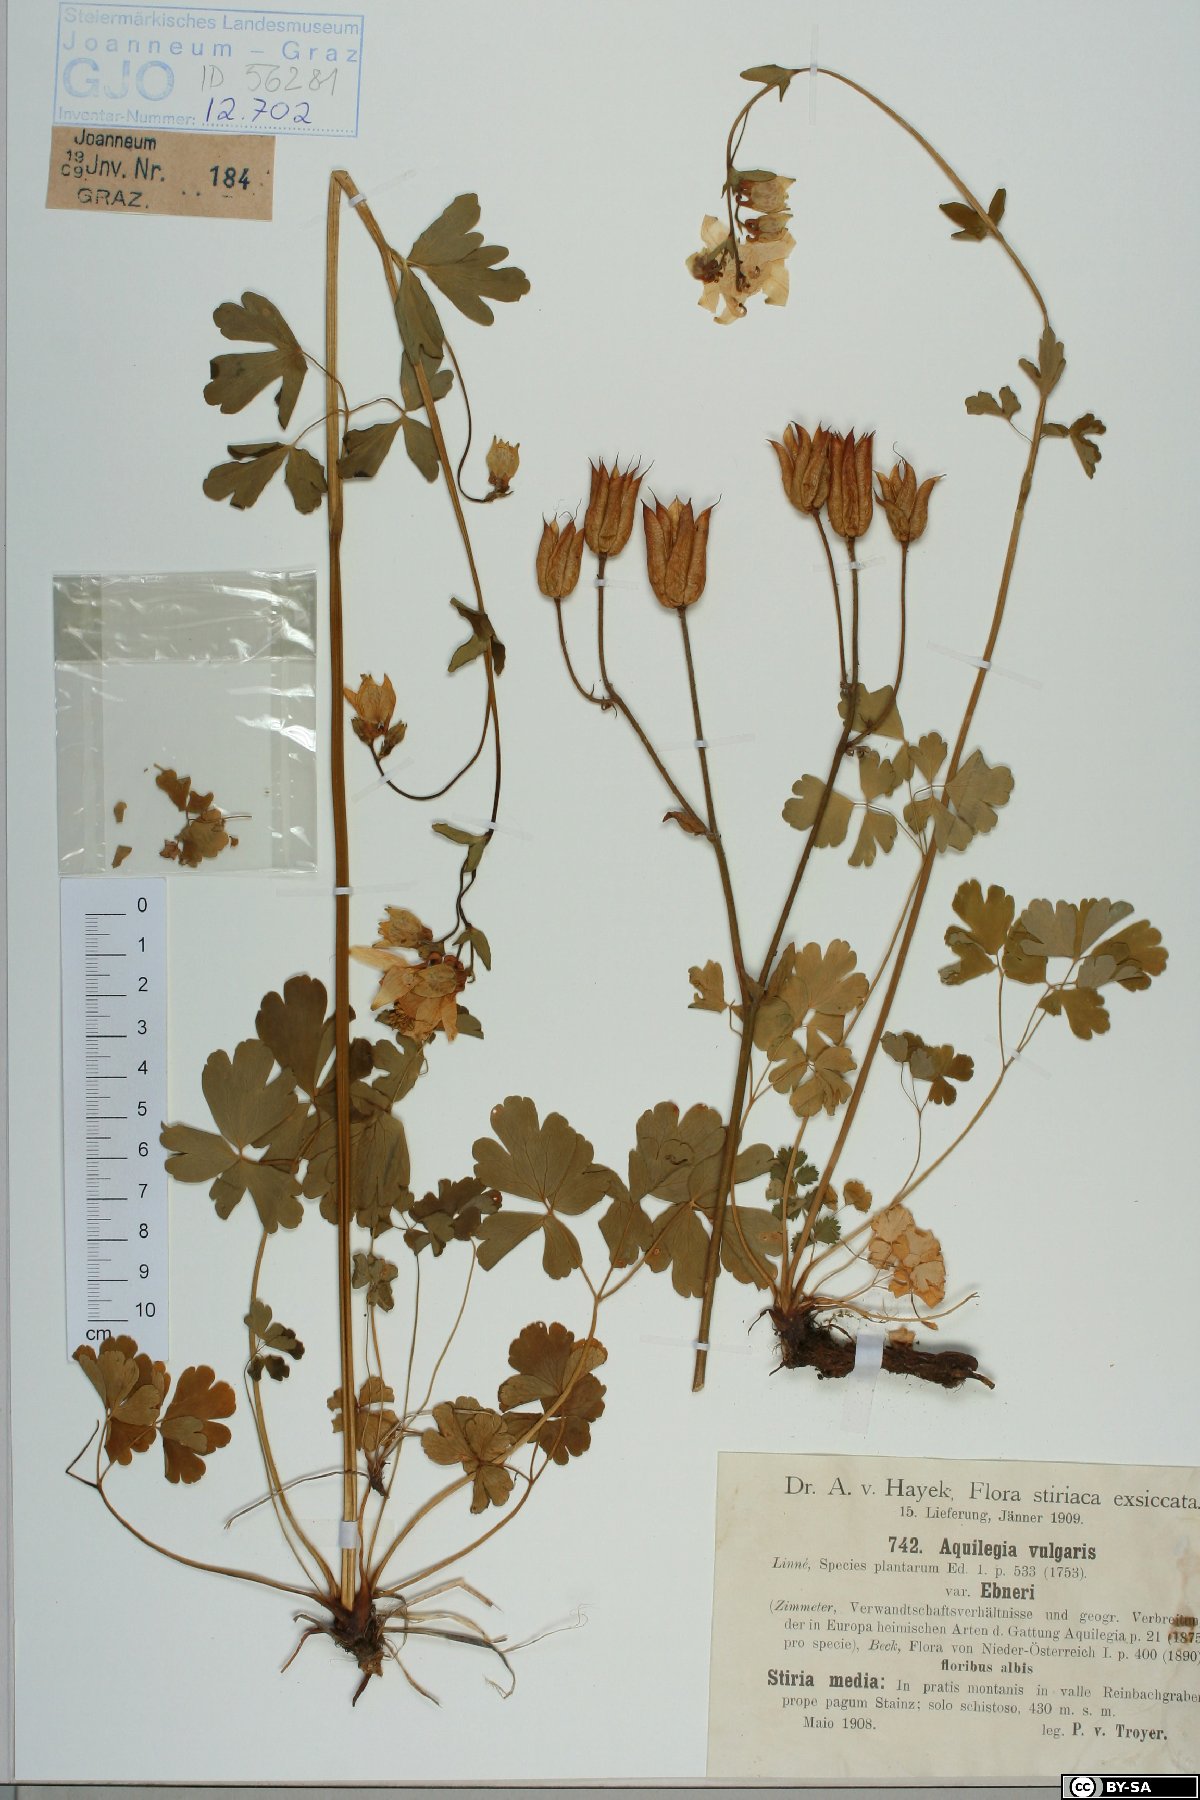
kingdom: Plantae
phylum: Tracheophyta
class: Magnoliopsida
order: Ranunculales
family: Ranunculaceae
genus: Aquilegia
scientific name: Aquilegia vulgaris
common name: Columbine
